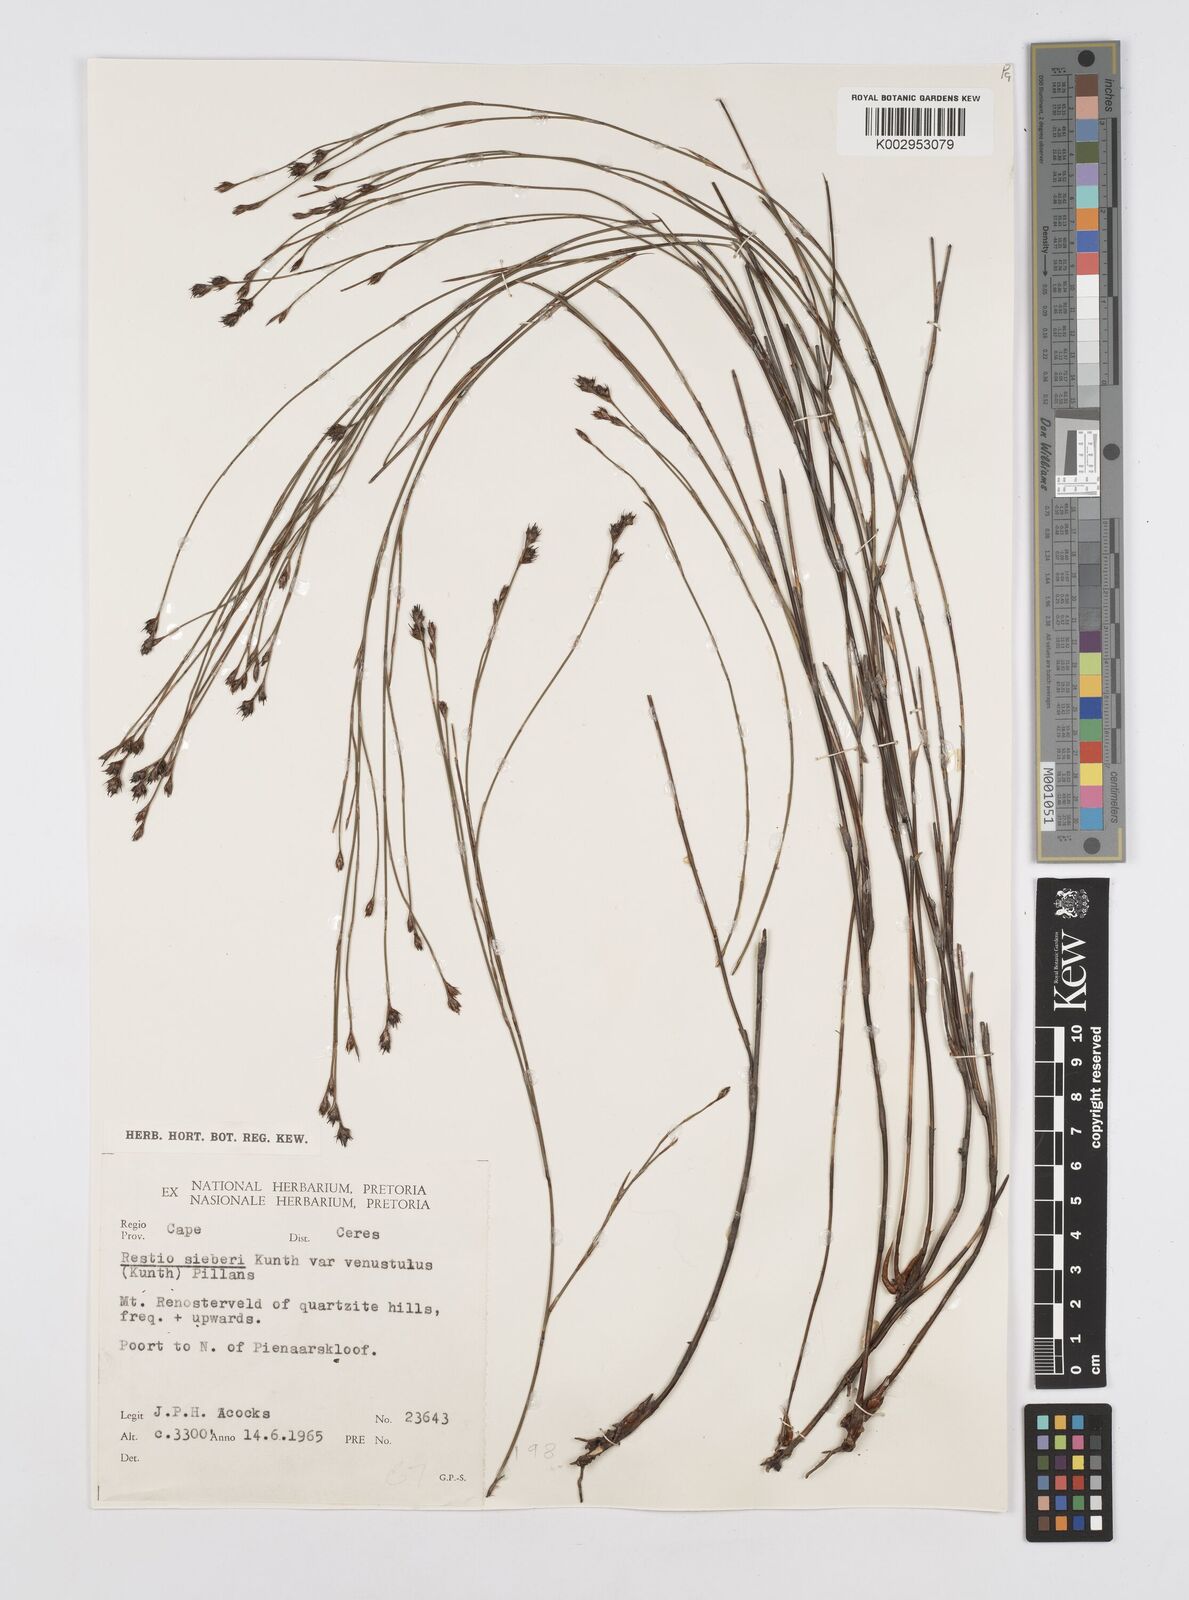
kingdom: Plantae
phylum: Tracheophyta
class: Liliopsida
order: Poales
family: Restionaceae
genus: Restio
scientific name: Restio sieberi
